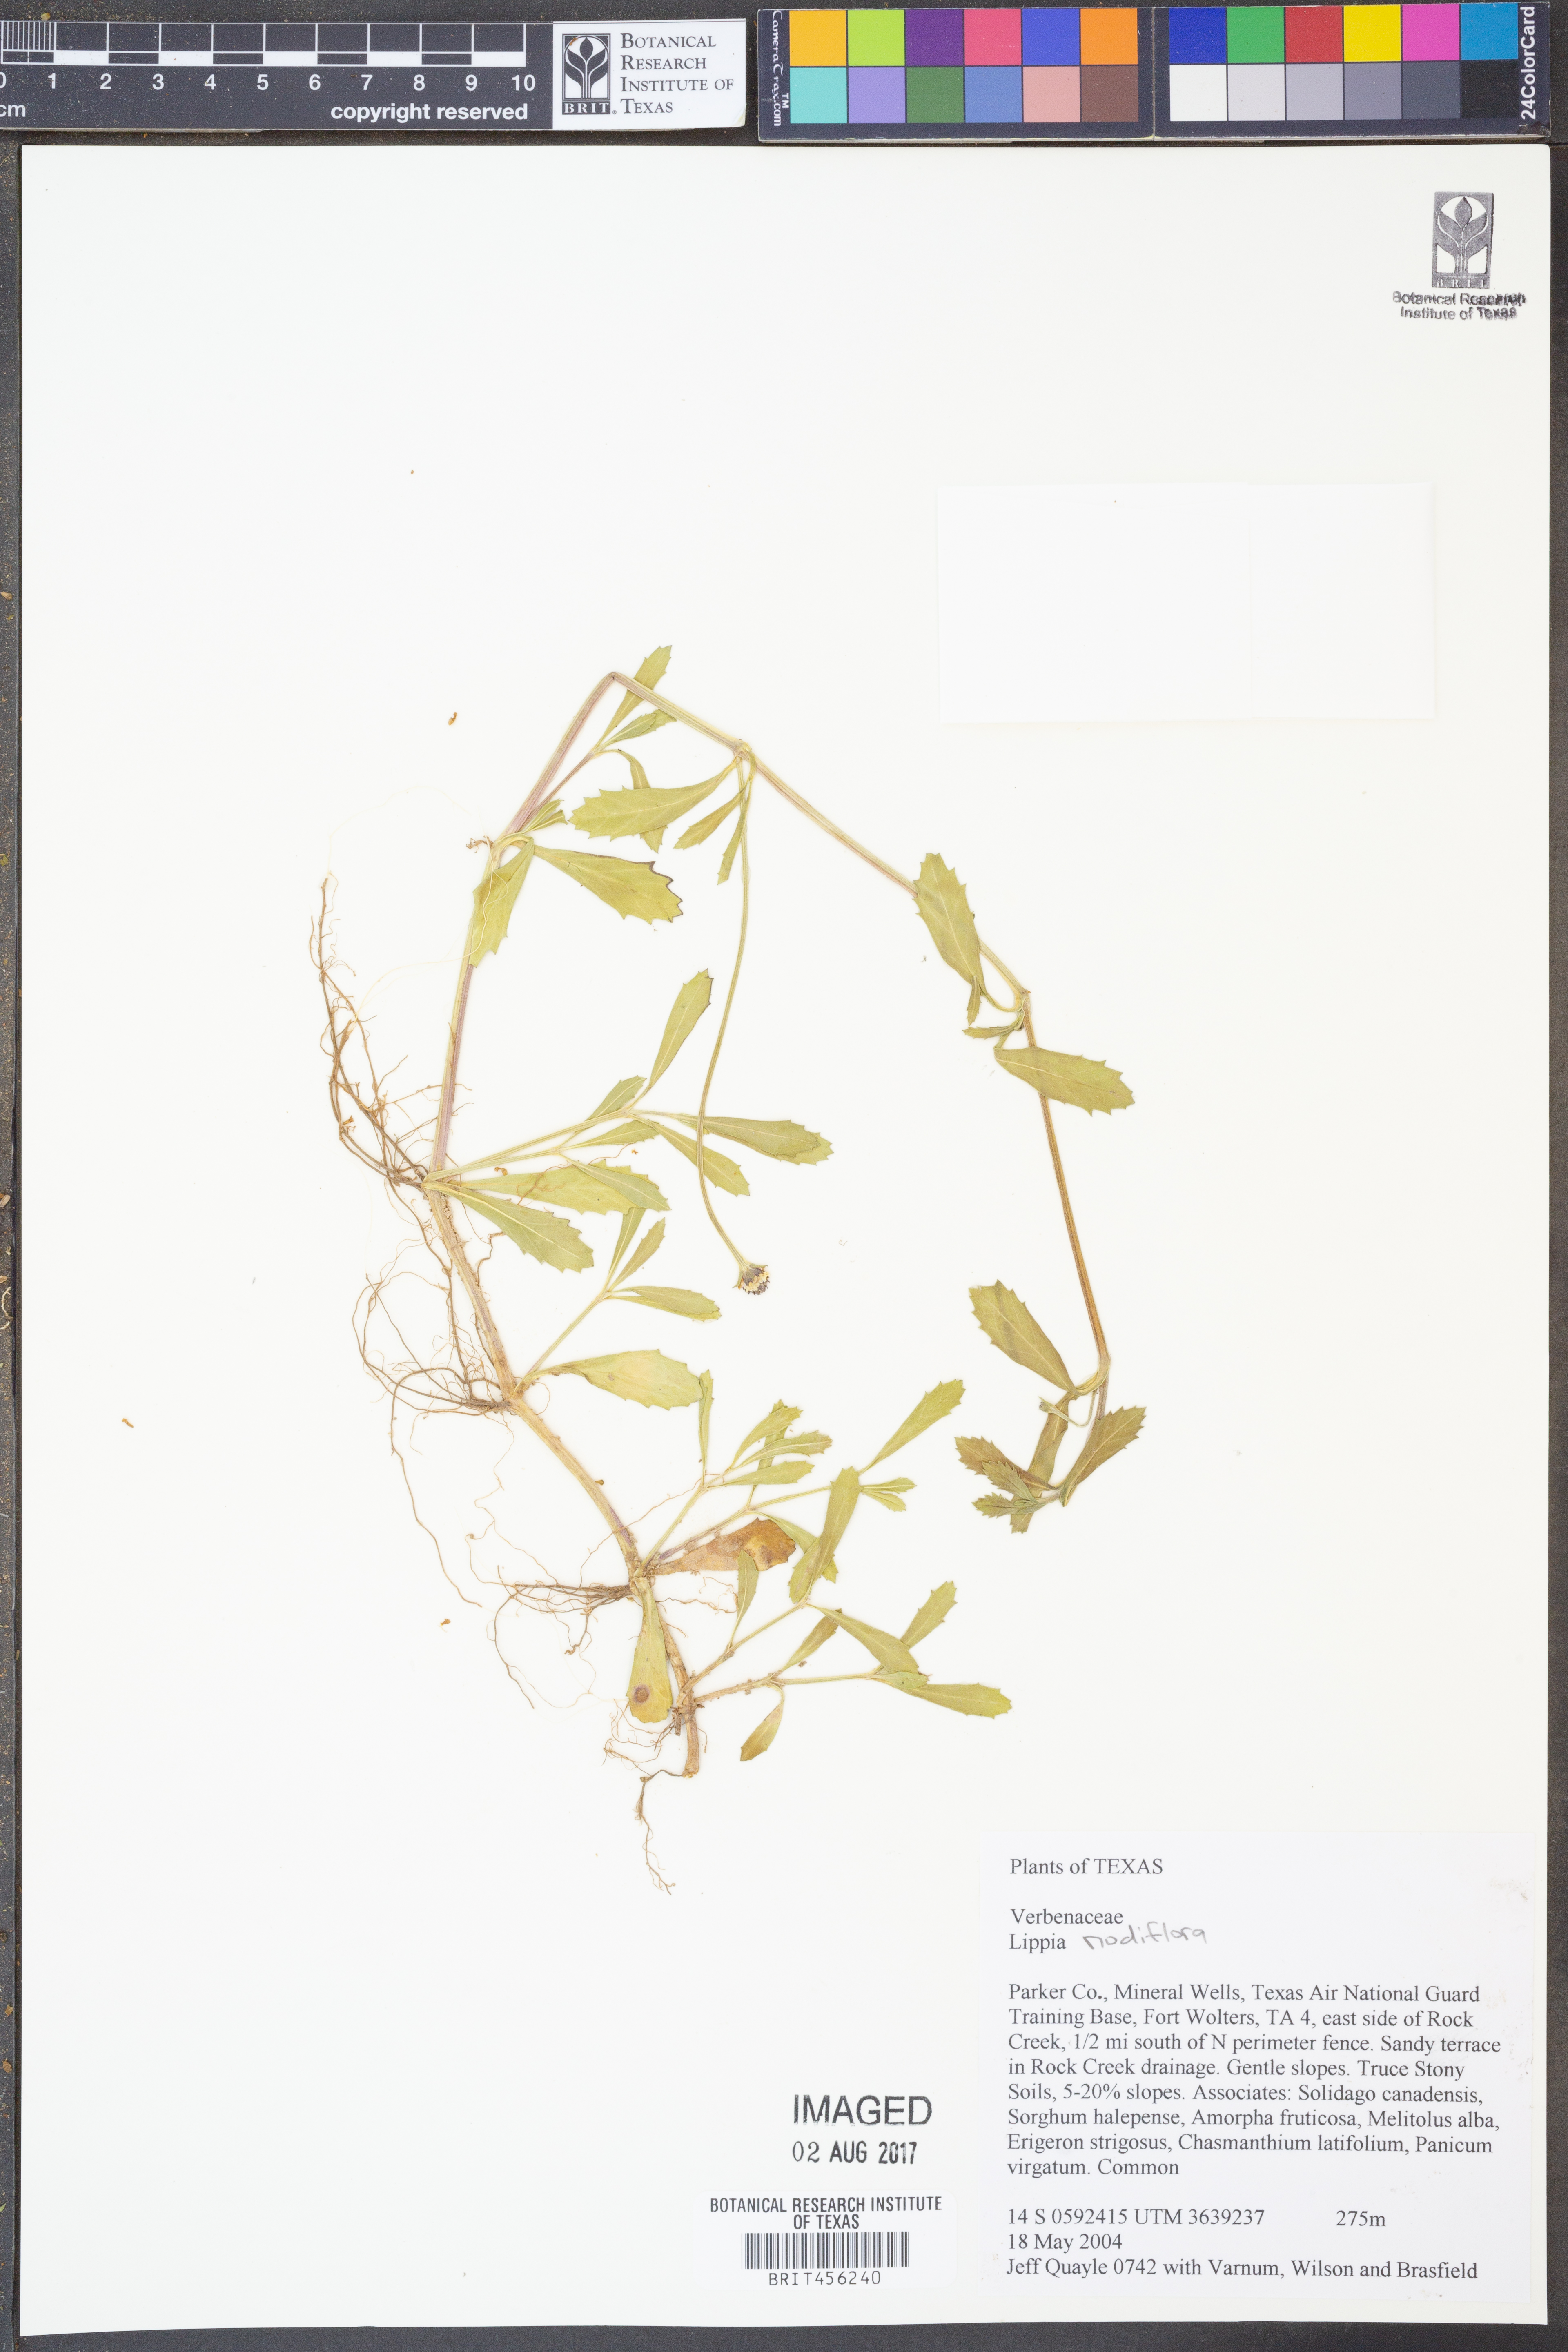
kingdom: Plantae
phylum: Tracheophyta
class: Magnoliopsida
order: Lamiales
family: Verbenaceae
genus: Phyla
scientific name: Phyla nodiflora
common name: Frogfruit
